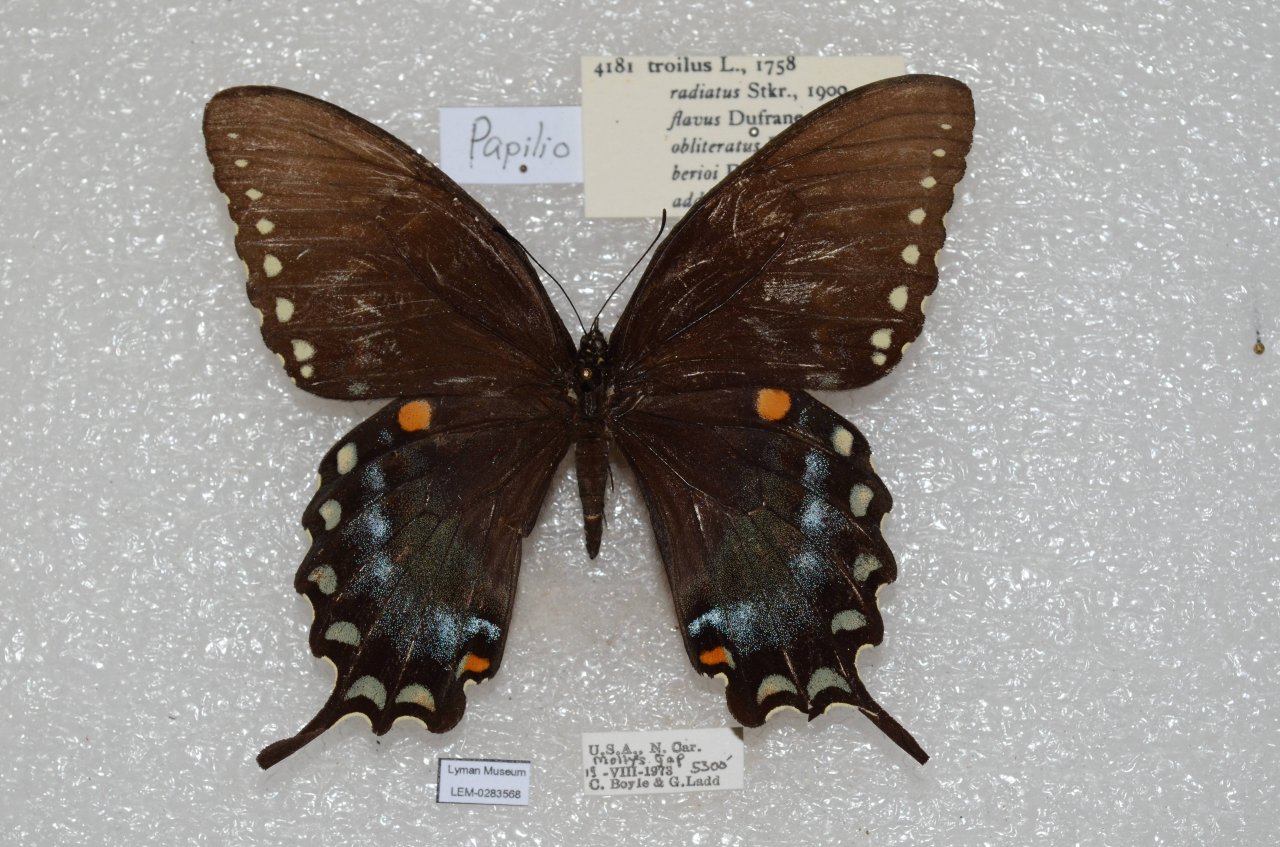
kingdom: Animalia
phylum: Arthropoda
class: Insecta
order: Lepidoptera
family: Papilionidae
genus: Pterourus
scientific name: Pterourus troilus
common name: Spicebush Swallowtail
